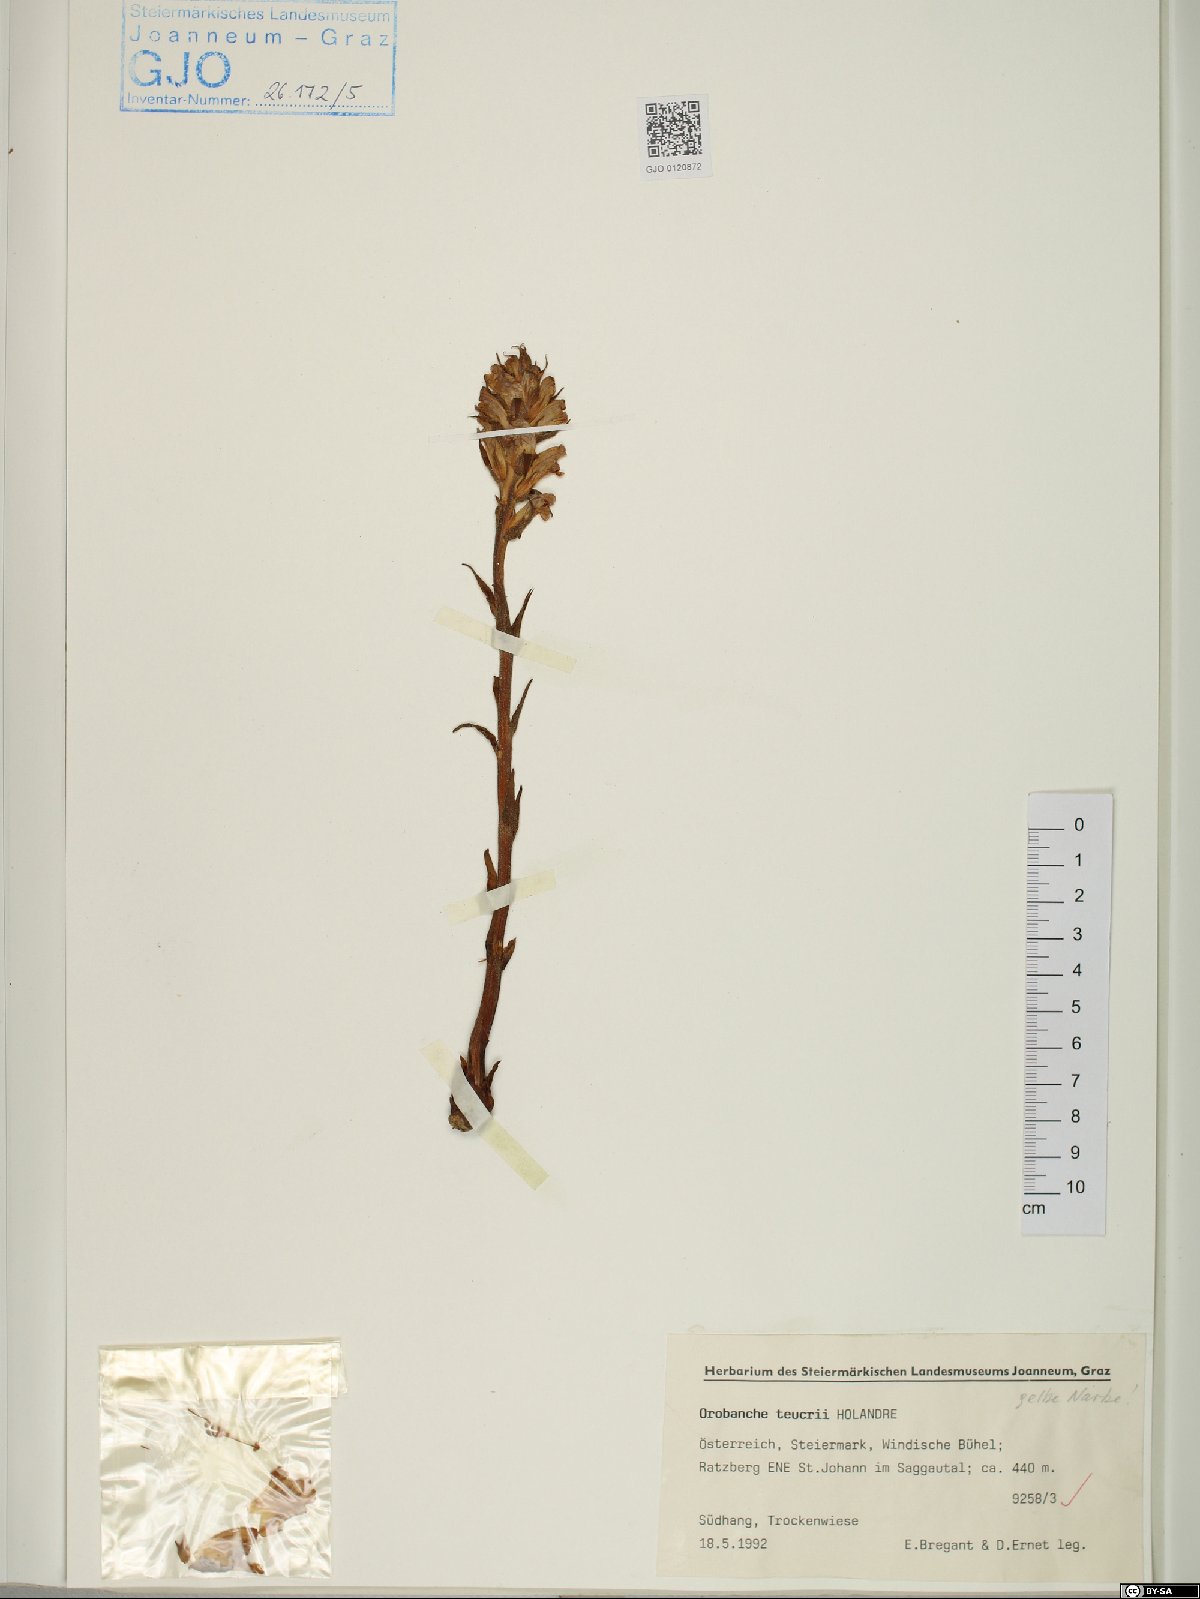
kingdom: Plantae
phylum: Tracheophyta
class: Magnoliopsida
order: Lamiales
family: Orobanchaceae
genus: Orobanche
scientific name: Orobanche teucrii
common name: Germander broomrape
